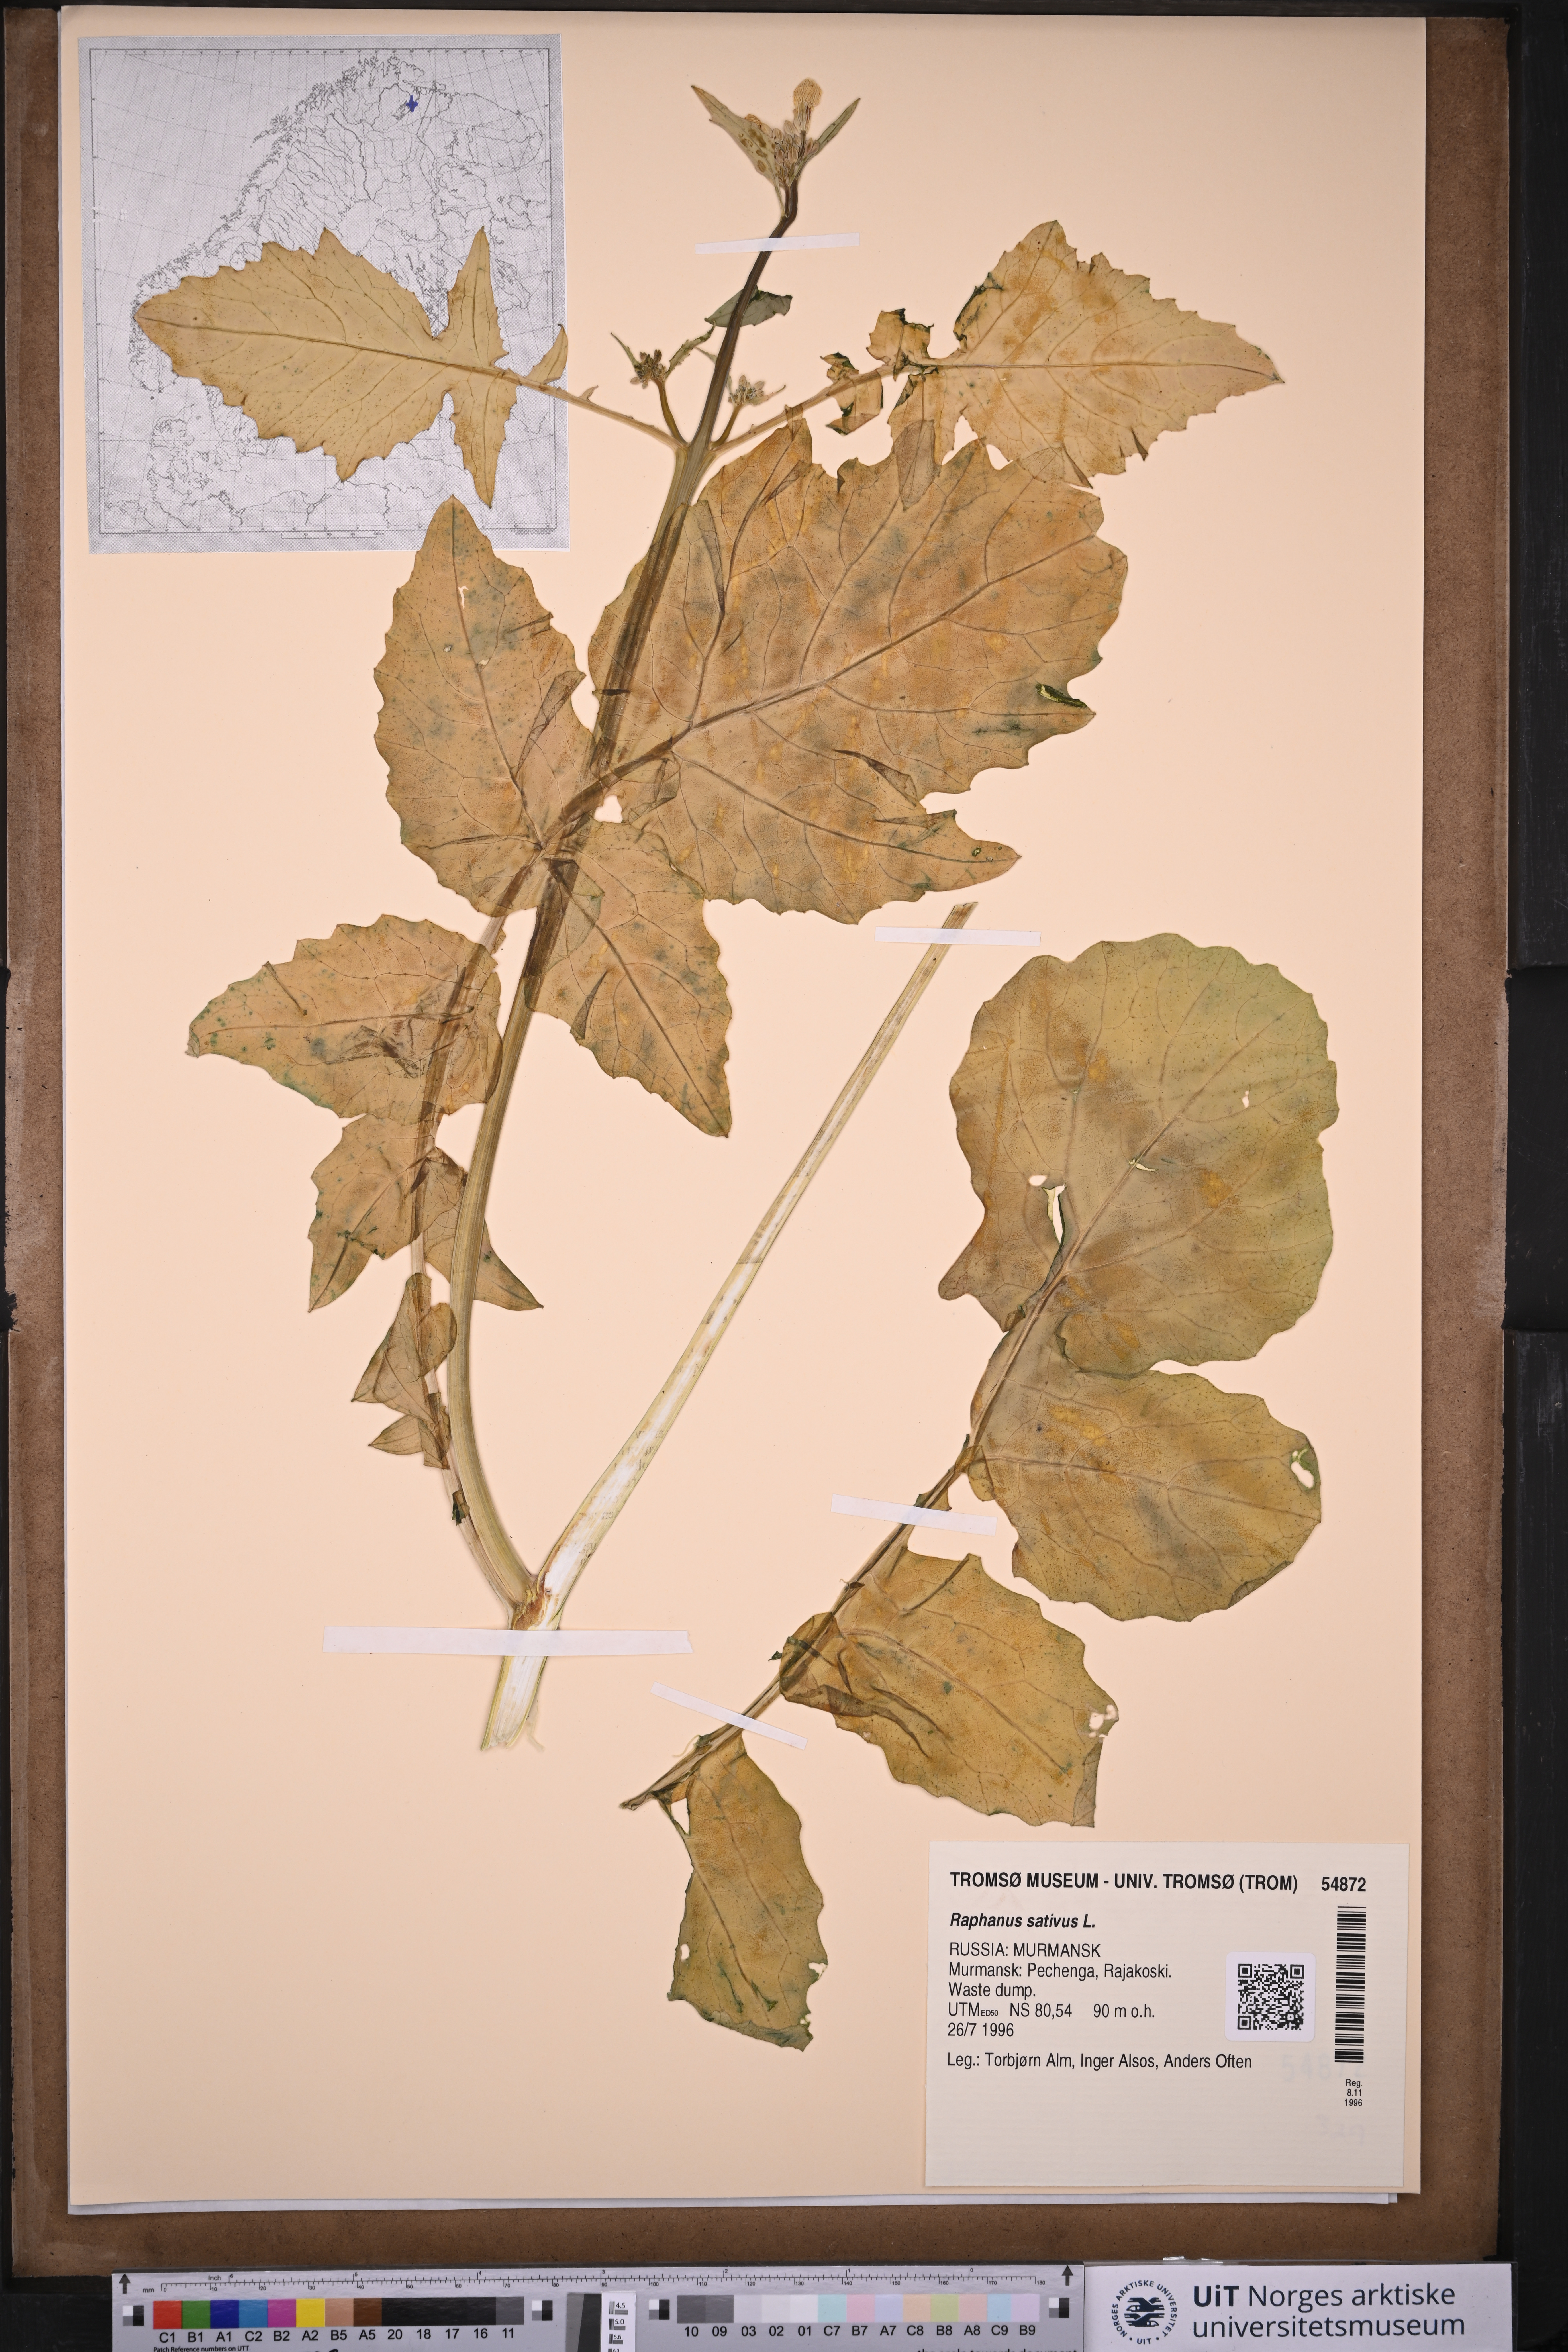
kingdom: Plantae
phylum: Tracheophyta
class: Magnoliopsida
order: Brassicales
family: Brassicaceae
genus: Raphanus
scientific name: Raphanus sativus
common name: Cultivated radish
